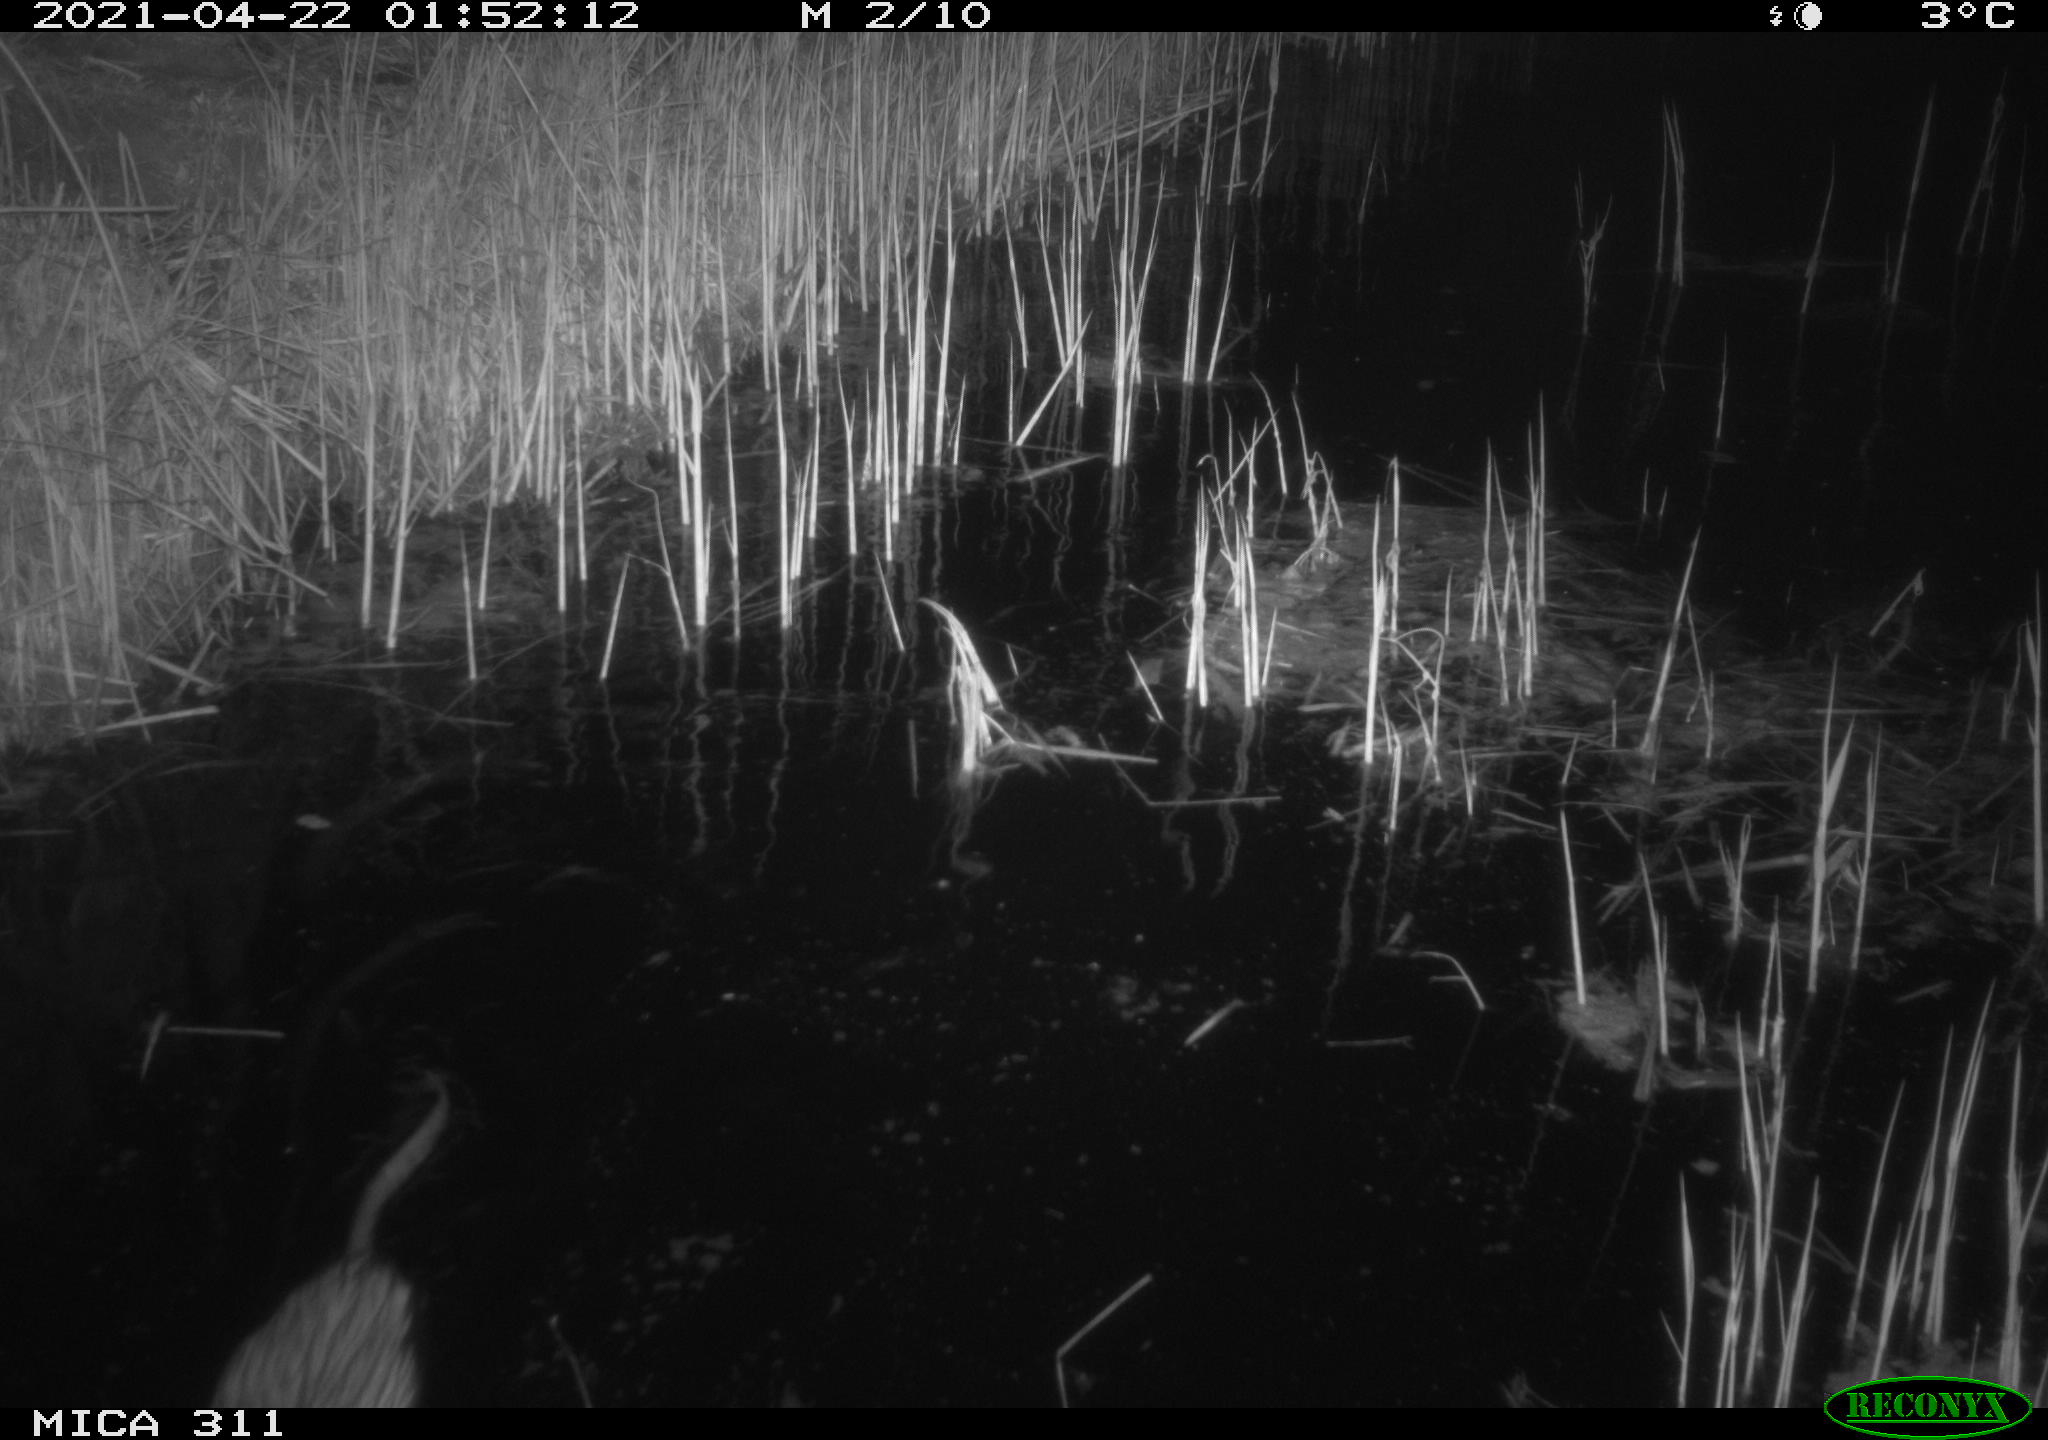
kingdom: Animalia
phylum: Chordata
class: Mammalia
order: Rodentia
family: Cricetidae
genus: Ondatra
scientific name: Ondatra zibethicus
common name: Muskrat
